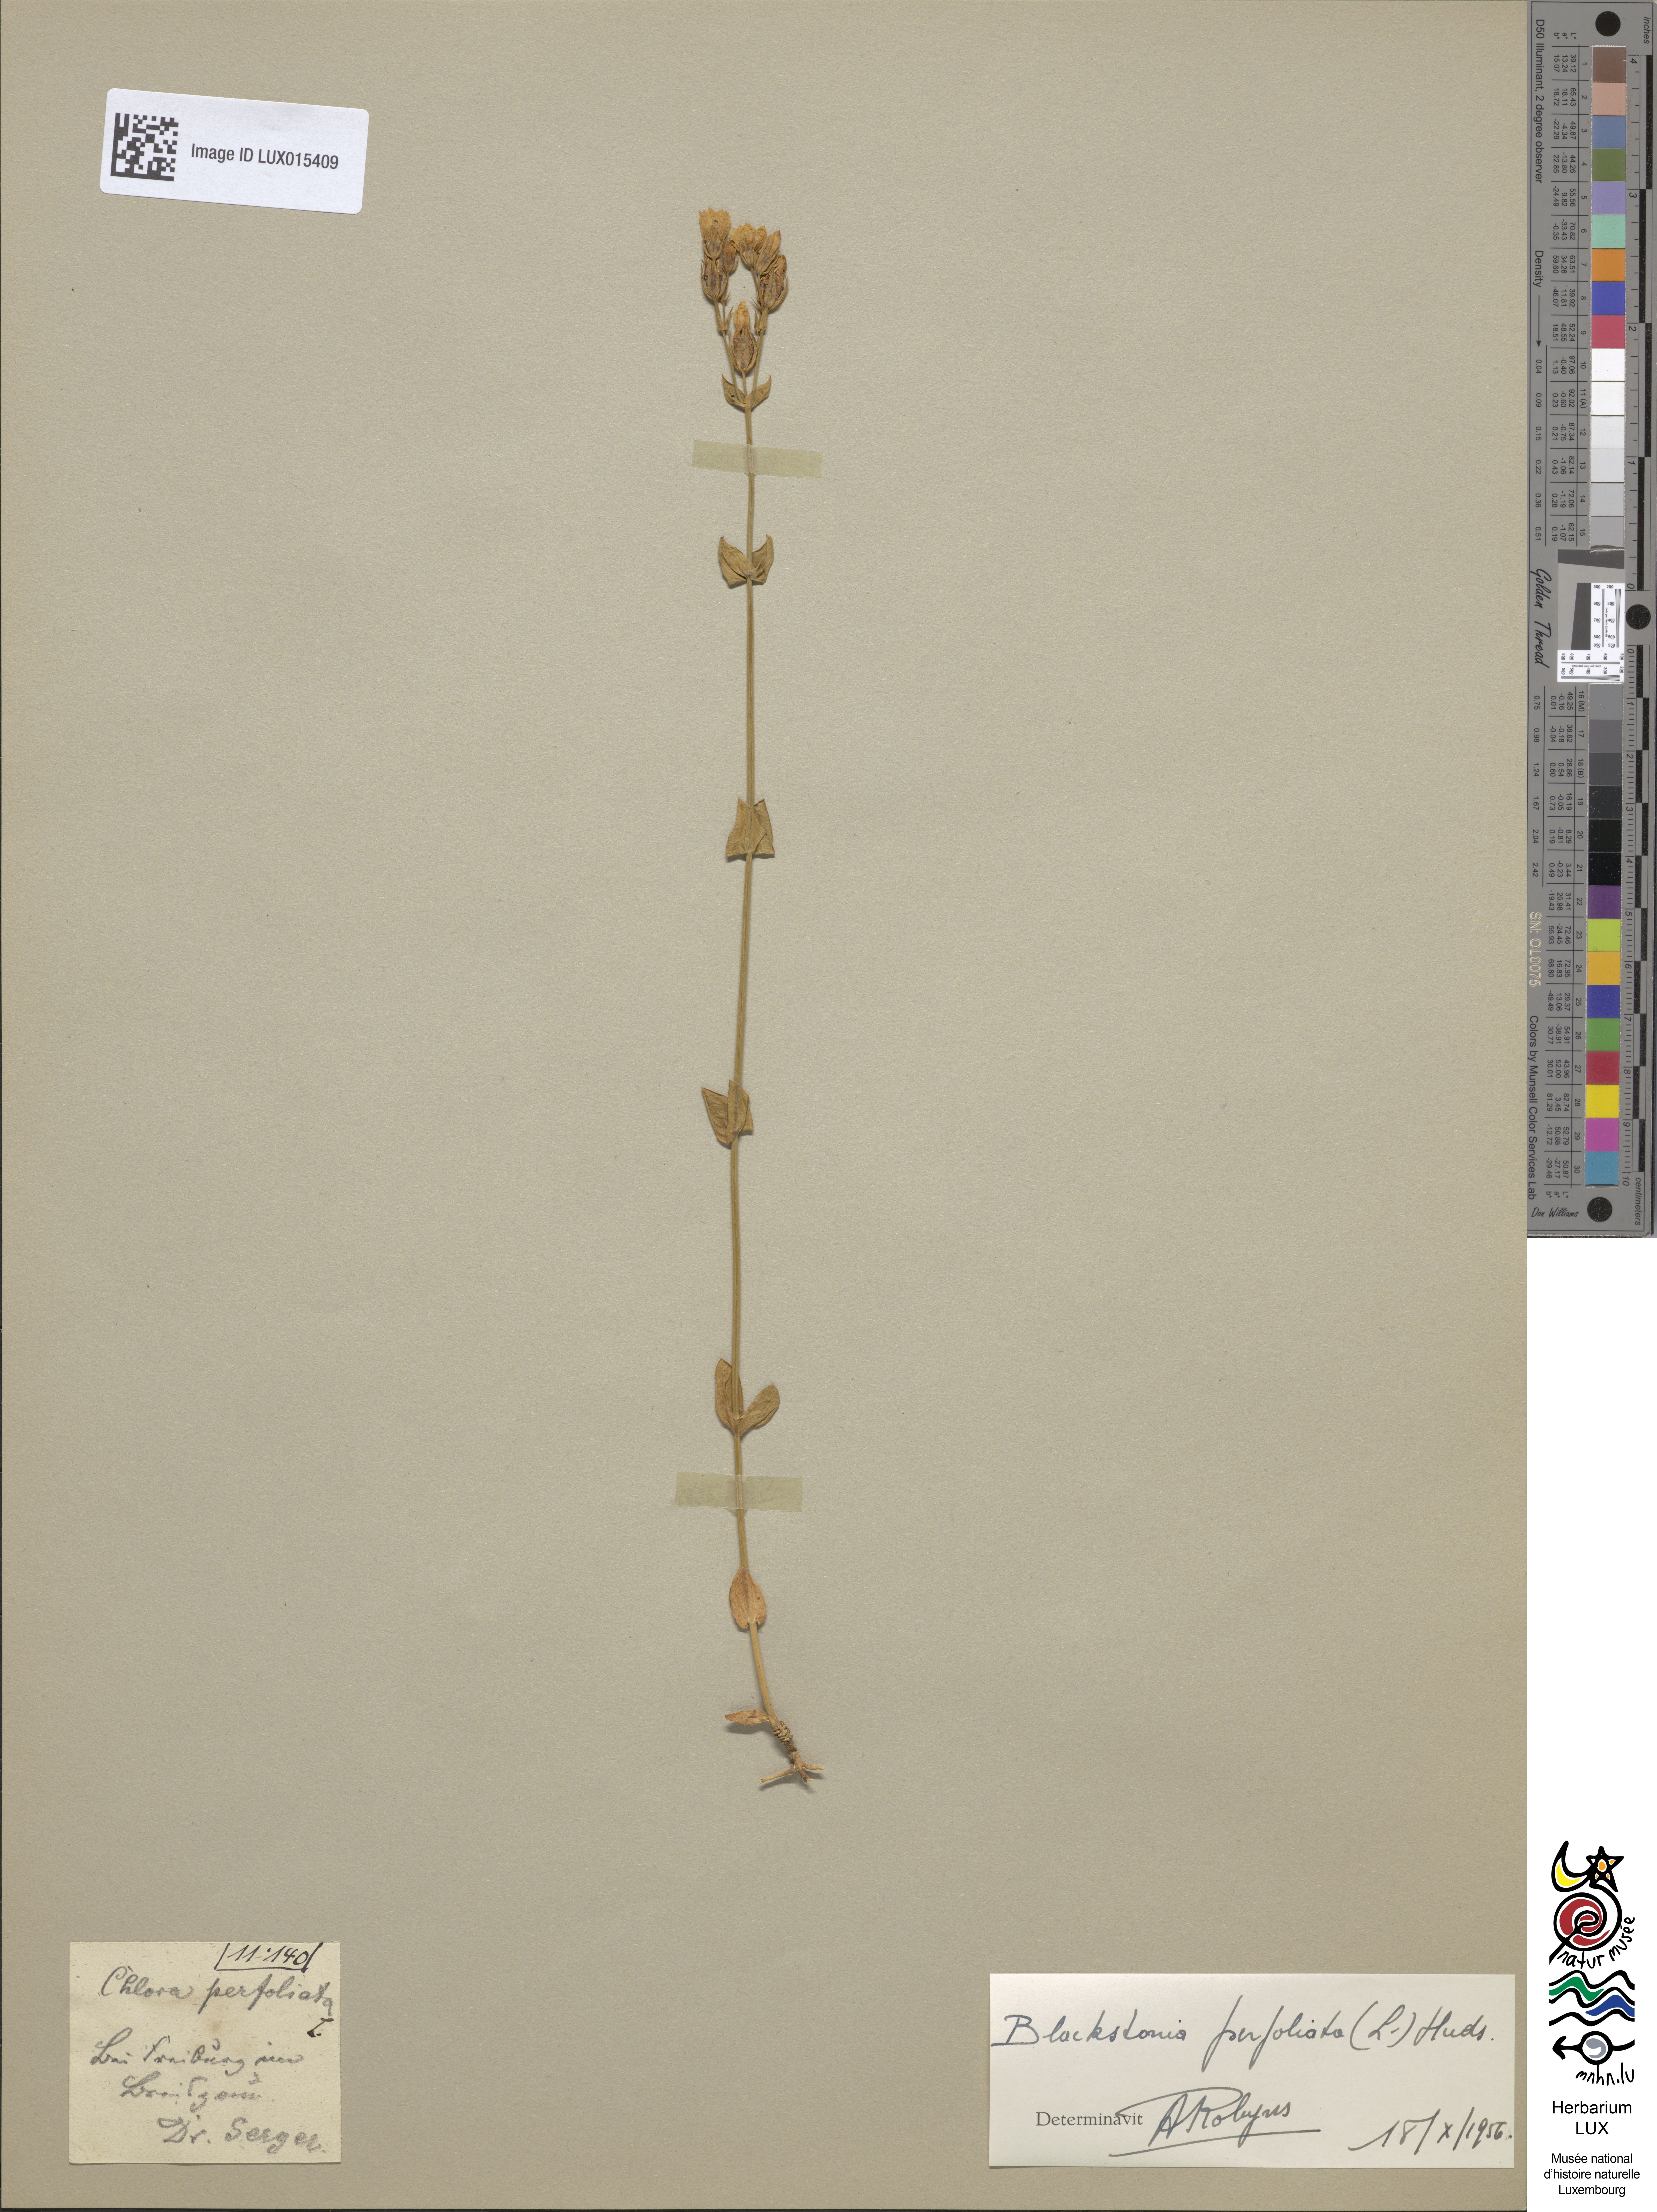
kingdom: Plantae
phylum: Tracheophyta
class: Magnoliopsida
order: Gentianales
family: Gentianaceae
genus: Blackstonia
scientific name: Blackstonia perfoliata
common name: Yellow-wort
